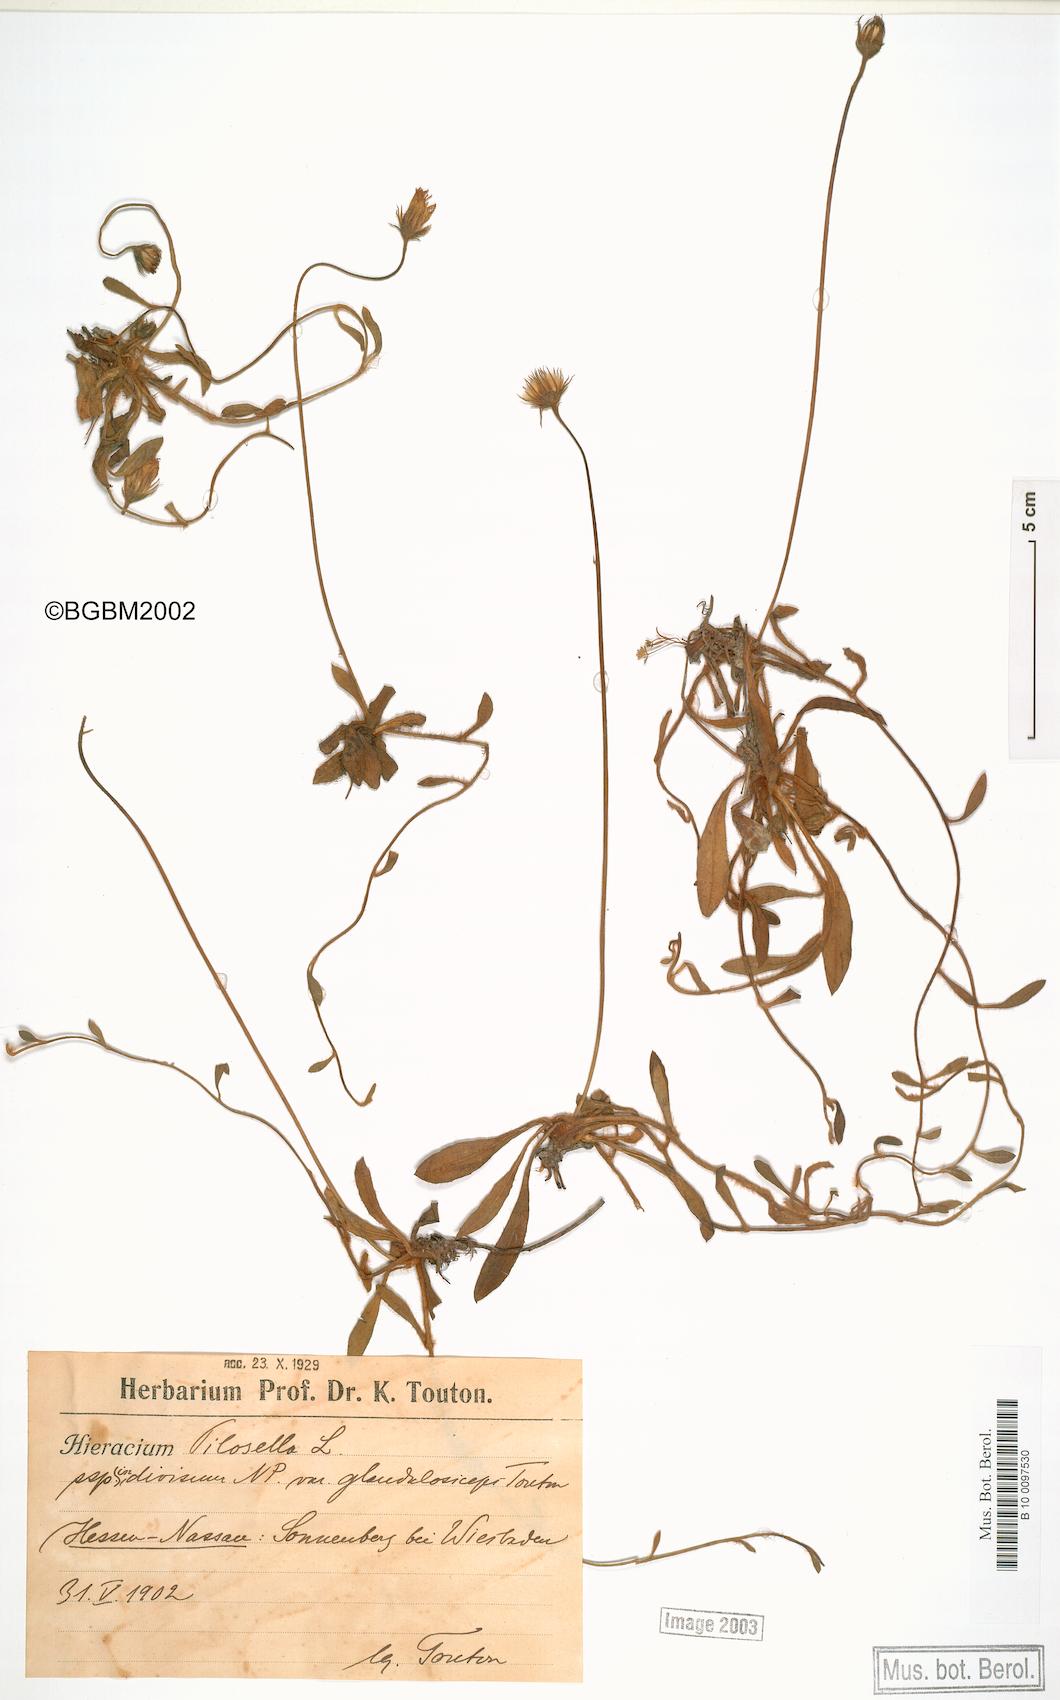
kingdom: Plantae
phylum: Tracheophyta
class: Magnoliopsida
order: Asterales
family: Asteraceae
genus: Pilosella
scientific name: Pilosella officinarum
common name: Mouse-ear hawkweed
